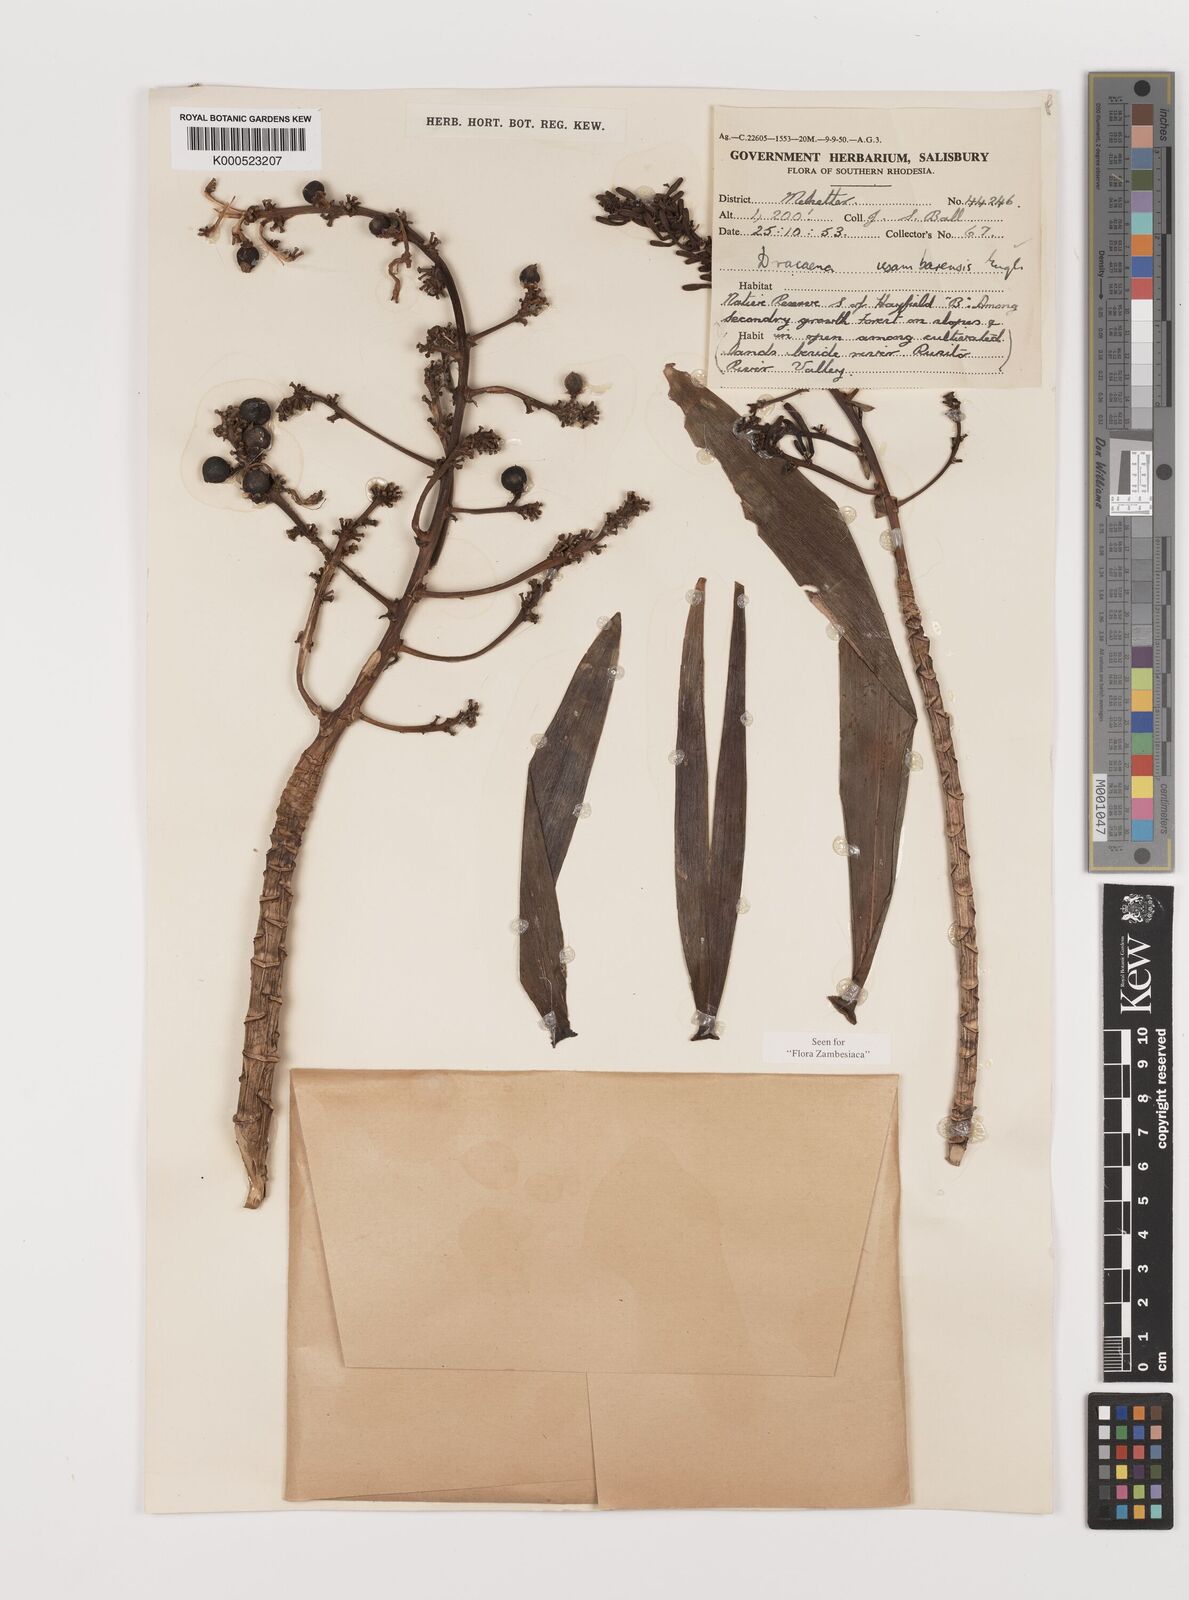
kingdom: Plantae
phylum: Tracheophyta
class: Liliopsida
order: Asparagales
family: Asparagaceae
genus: Dracaena
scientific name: Dracaena usambarensis
